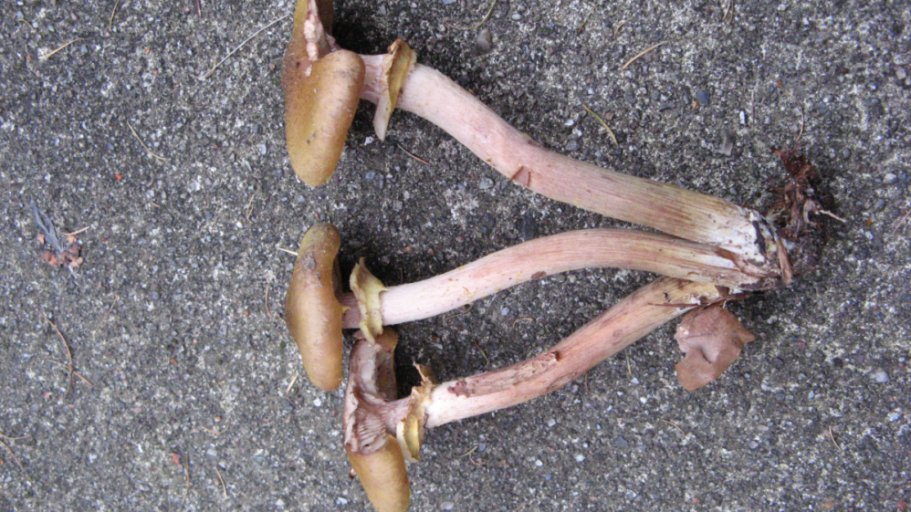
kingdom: Fungi
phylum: Basidiomycota
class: Agaricomycetes
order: Agaricales
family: Physalacriaceae
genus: Armillaria
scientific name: Armillaria mellea
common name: ægte honningsvamp
